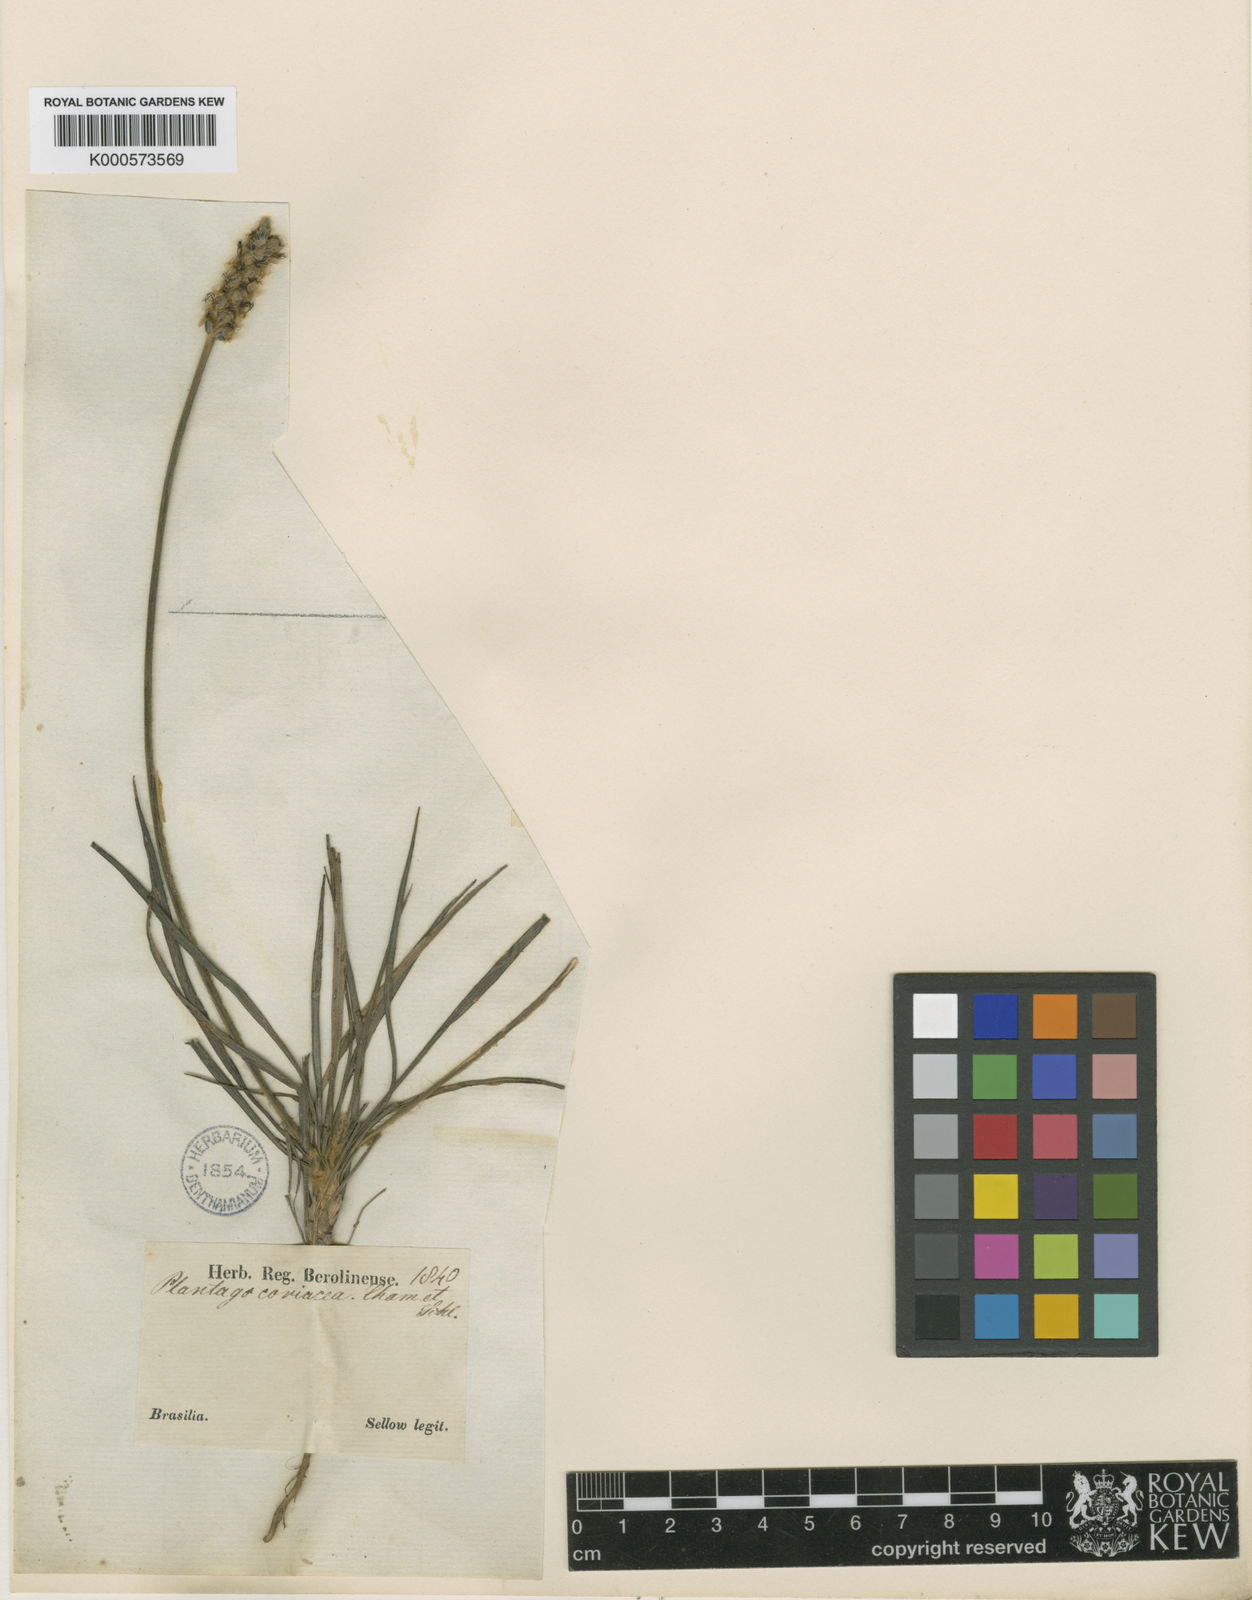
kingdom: Plantae
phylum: Tracheophyta
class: Magnoliopsida
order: Lamiales
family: Plantaginaceae
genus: Plantago
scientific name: Plantago brasiliensis
